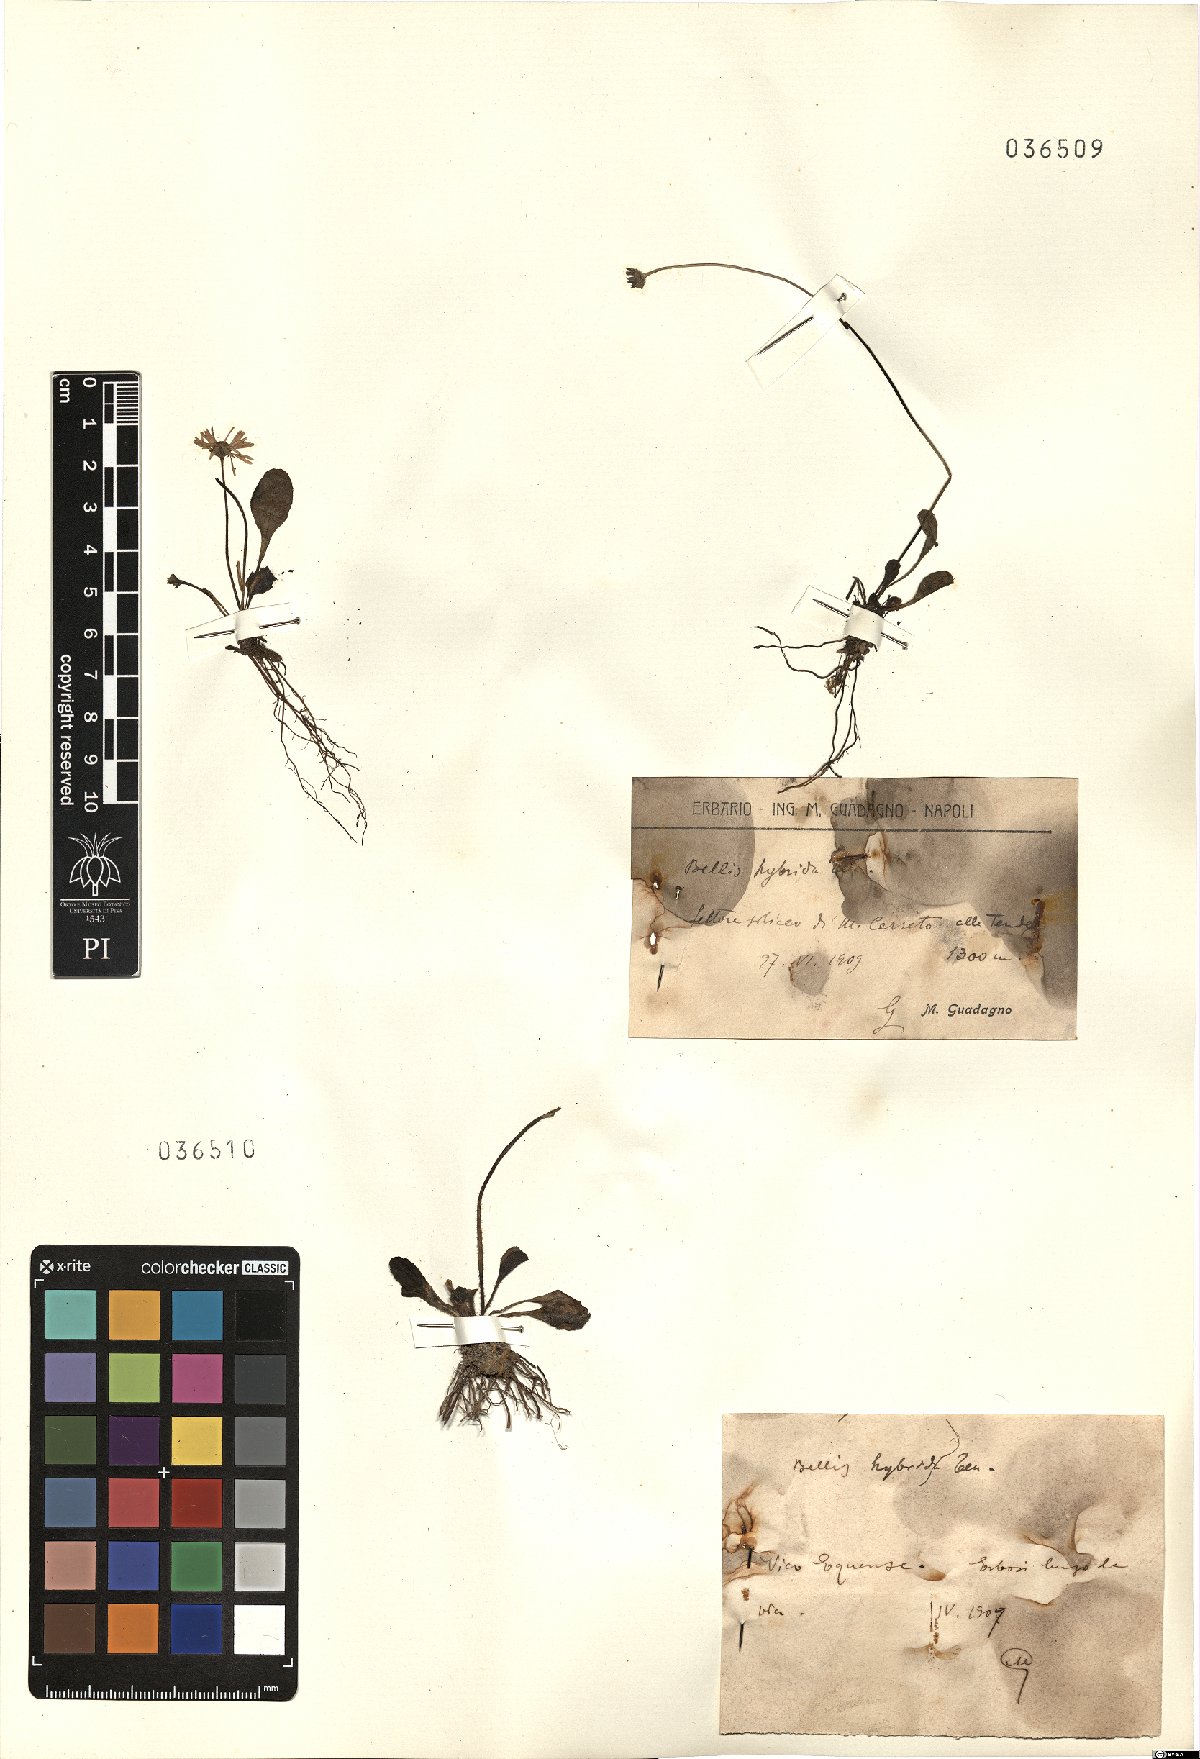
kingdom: Plantae
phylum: Tracheophyta
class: Magnoliopsida
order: Asterales
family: Asteraceae
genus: Bellis
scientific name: Bellis perennis
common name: Lawndaisy
